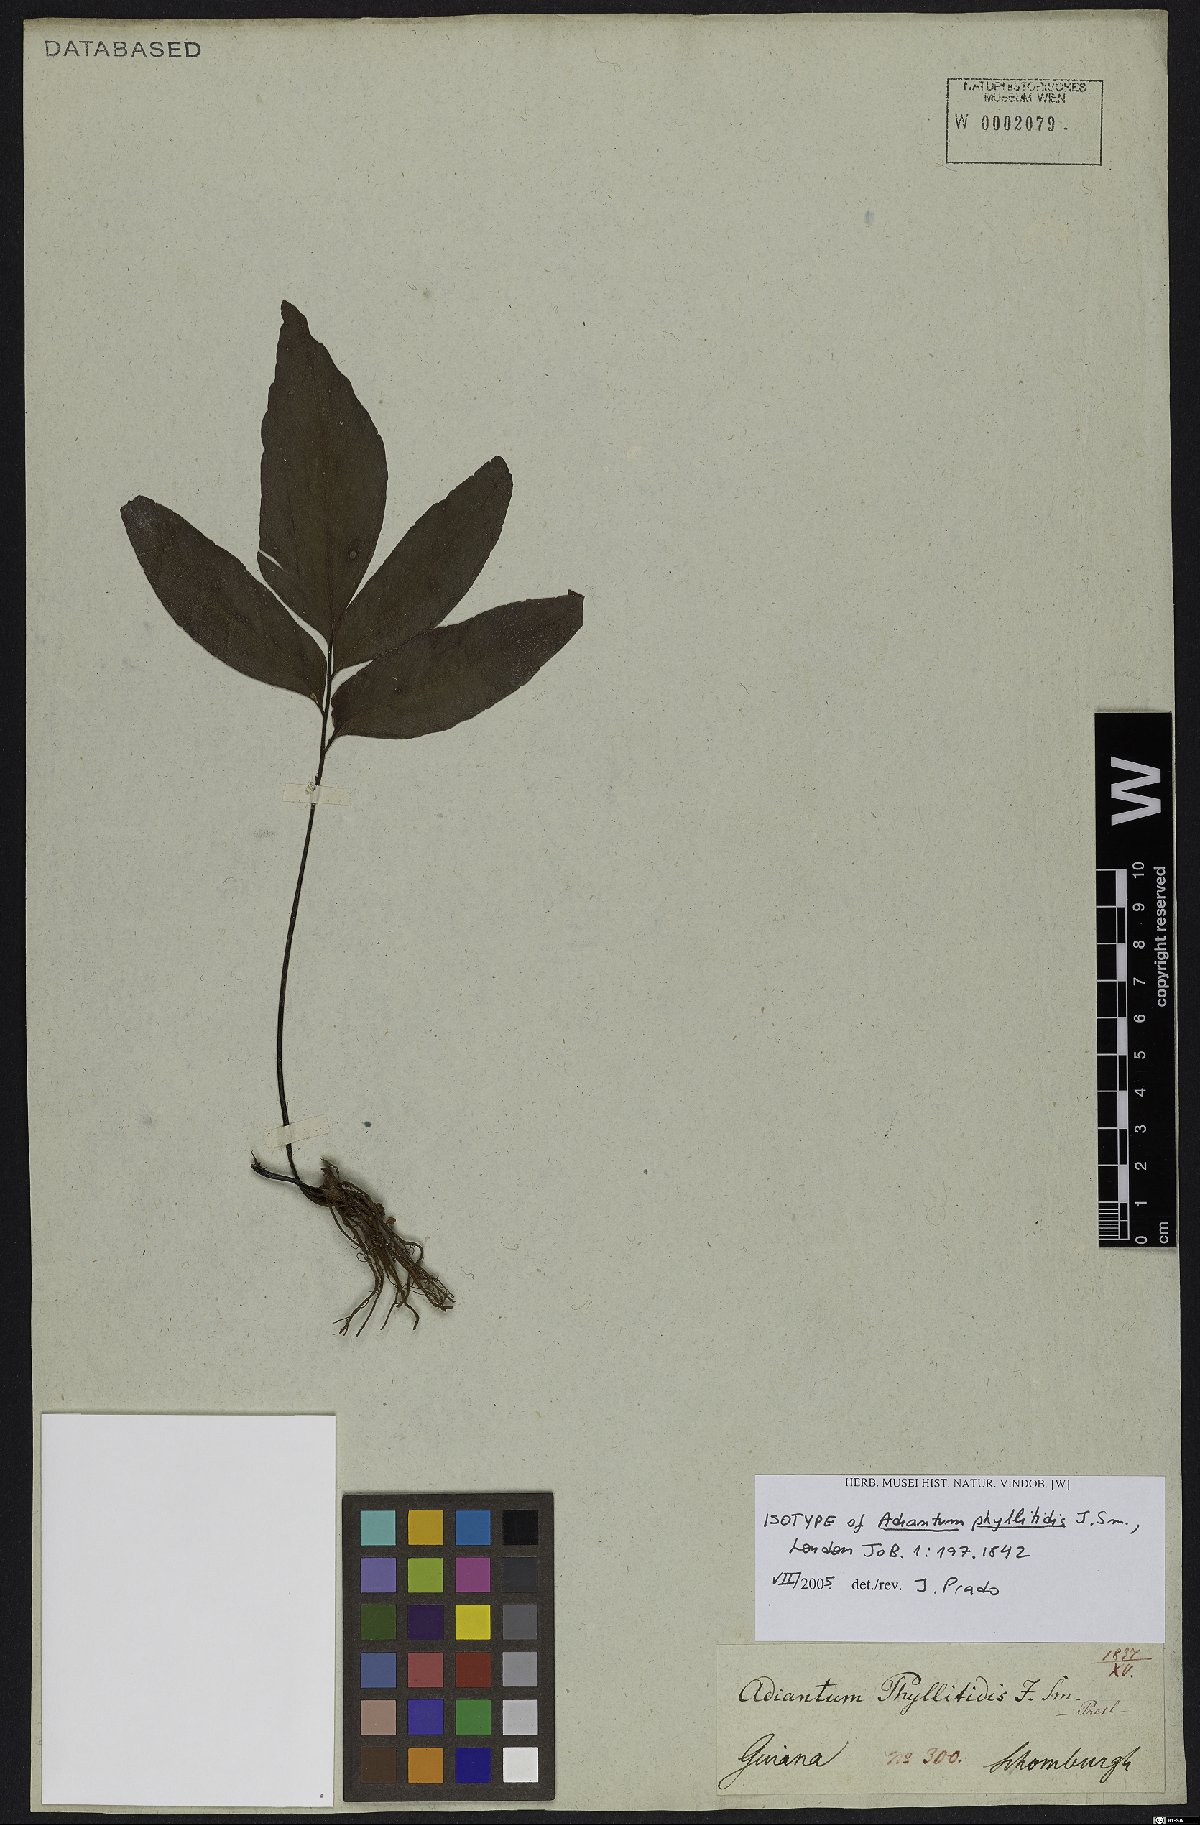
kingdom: Plantae
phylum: Tracheophyta
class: Polypodiopsida
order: Polypodiales
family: Pteridaceae
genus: Adiantum
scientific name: Adiantum phyllitidis
